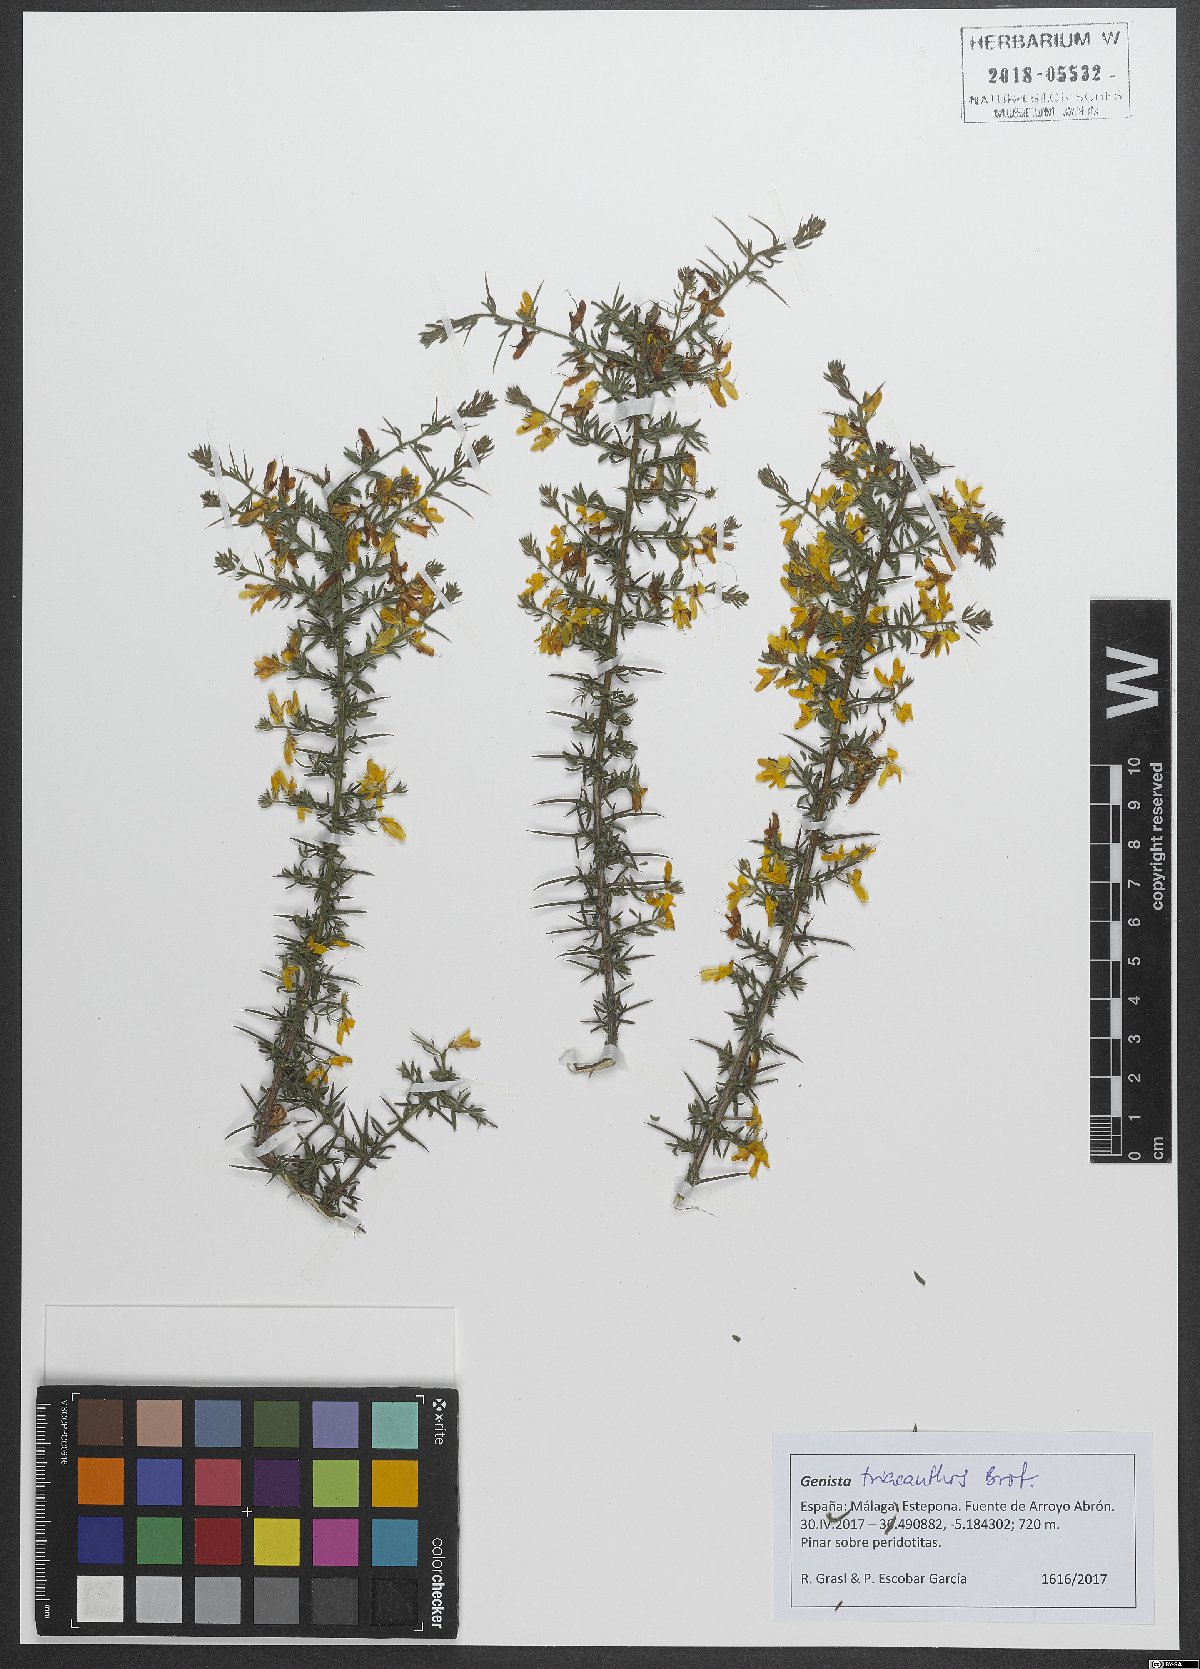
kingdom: Plantae
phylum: Tracheophyta
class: Magnoliopsida
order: Fabales
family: Fabaceae
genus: Genista
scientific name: Genista triacanthos
